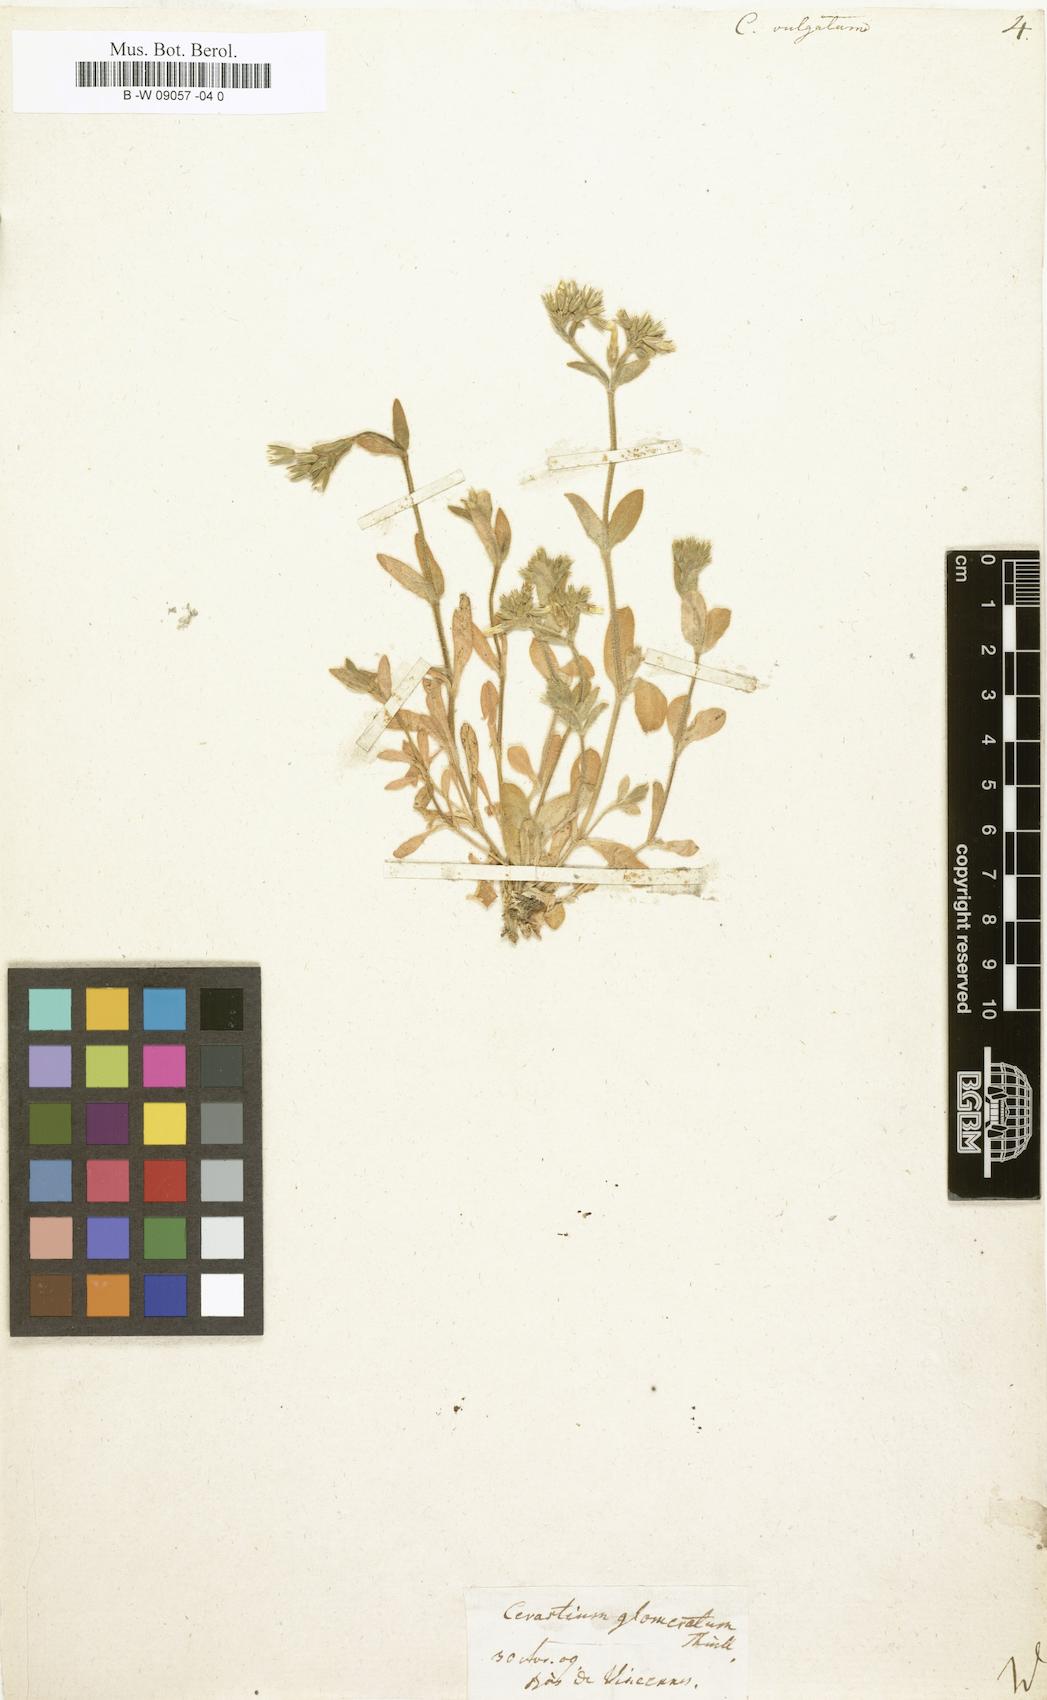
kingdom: Plantae
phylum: Tracheophyta
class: Magnoliopsida
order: Caryophyllales
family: Caryophyllaceae
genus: Cerastium
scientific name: Cerastium
